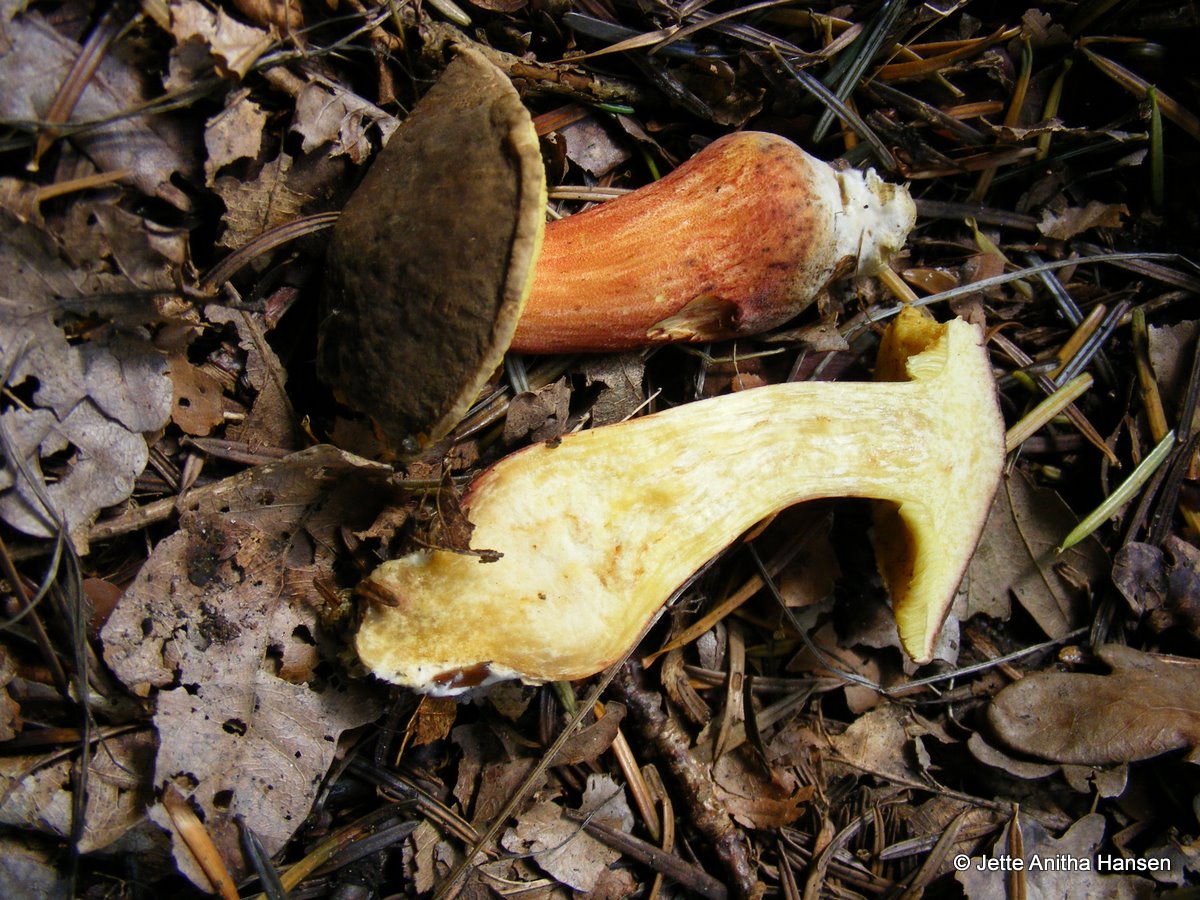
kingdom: Fungi
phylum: Basidiomycota
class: Agaricomycetes
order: Boletales
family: Boletaceae
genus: Xerocomellus
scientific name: Xerocomellus chrysenteron
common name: rødsprukken rørhat
